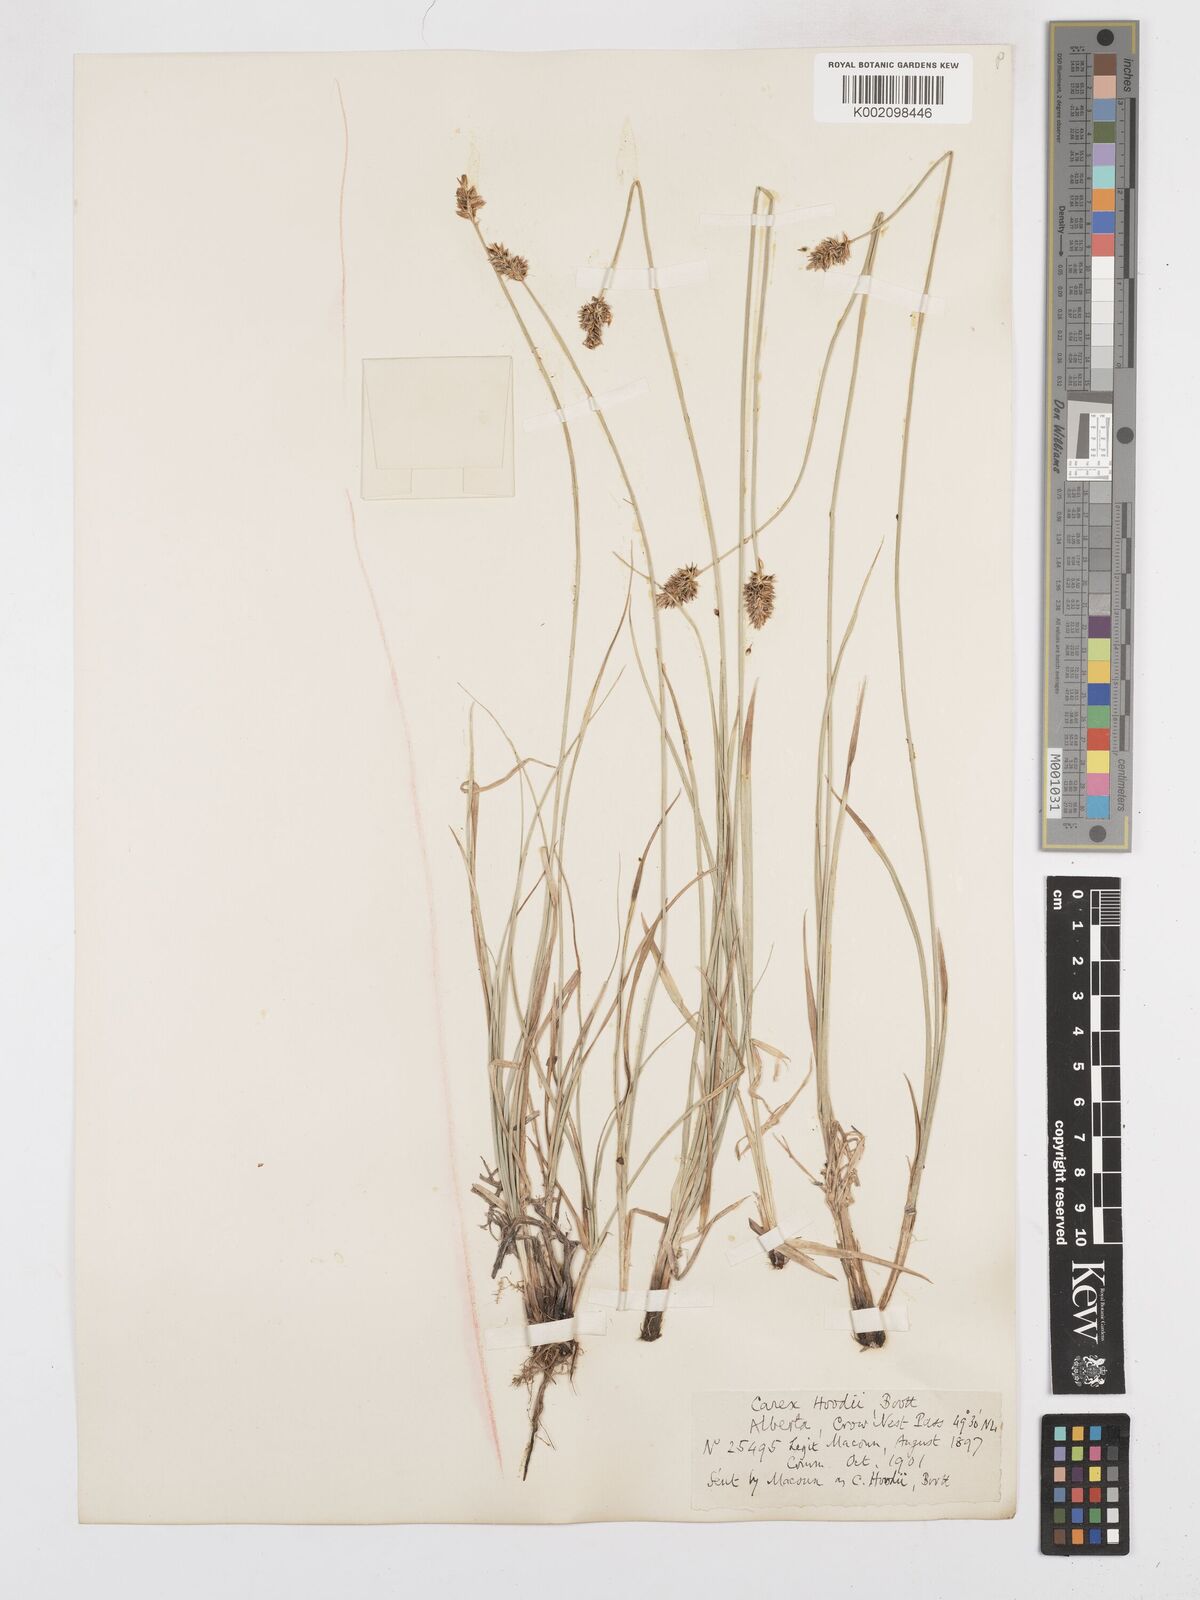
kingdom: Plantae
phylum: Tracheophyta
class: Liliopsida
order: Poales
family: Cyperaceae
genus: Carex
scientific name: Carex hoodii
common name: Hood's sedge
